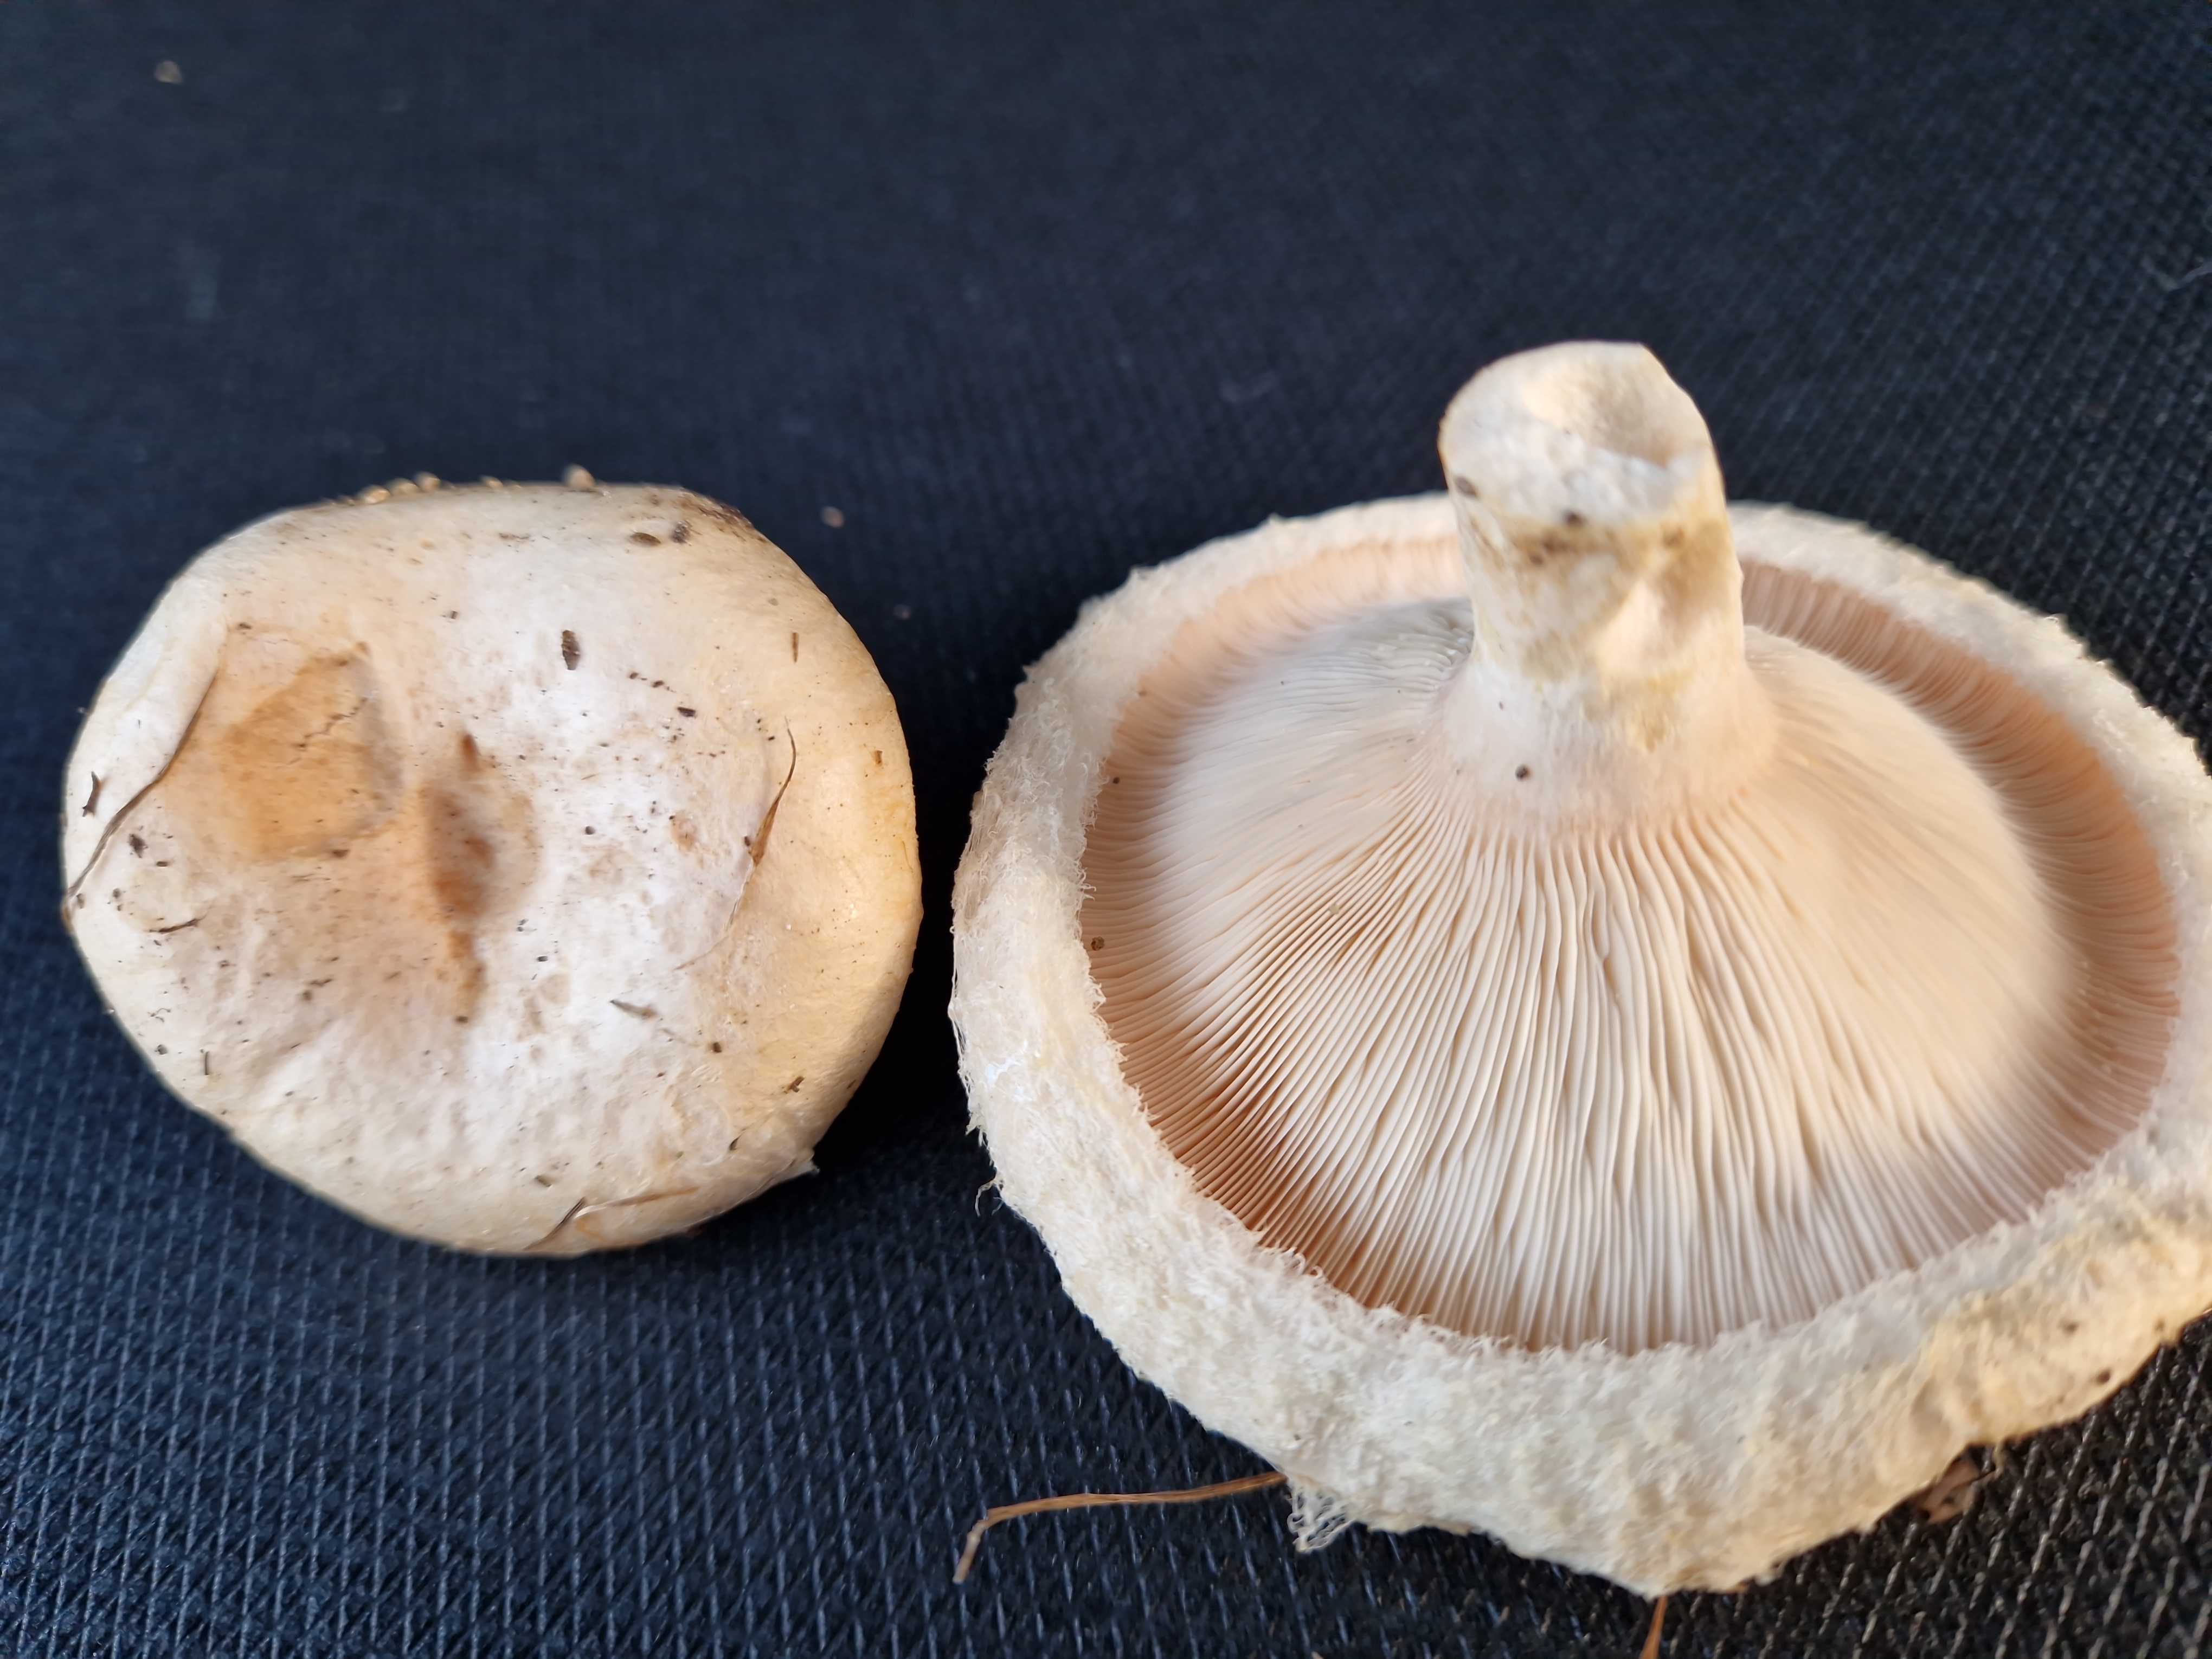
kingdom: Fungi
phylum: Basidiomycota
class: Agaricomycetes
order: Russulales
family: Russulaceae
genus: Lactarius
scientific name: Lactarius pubescens
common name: dunet mælkehat
